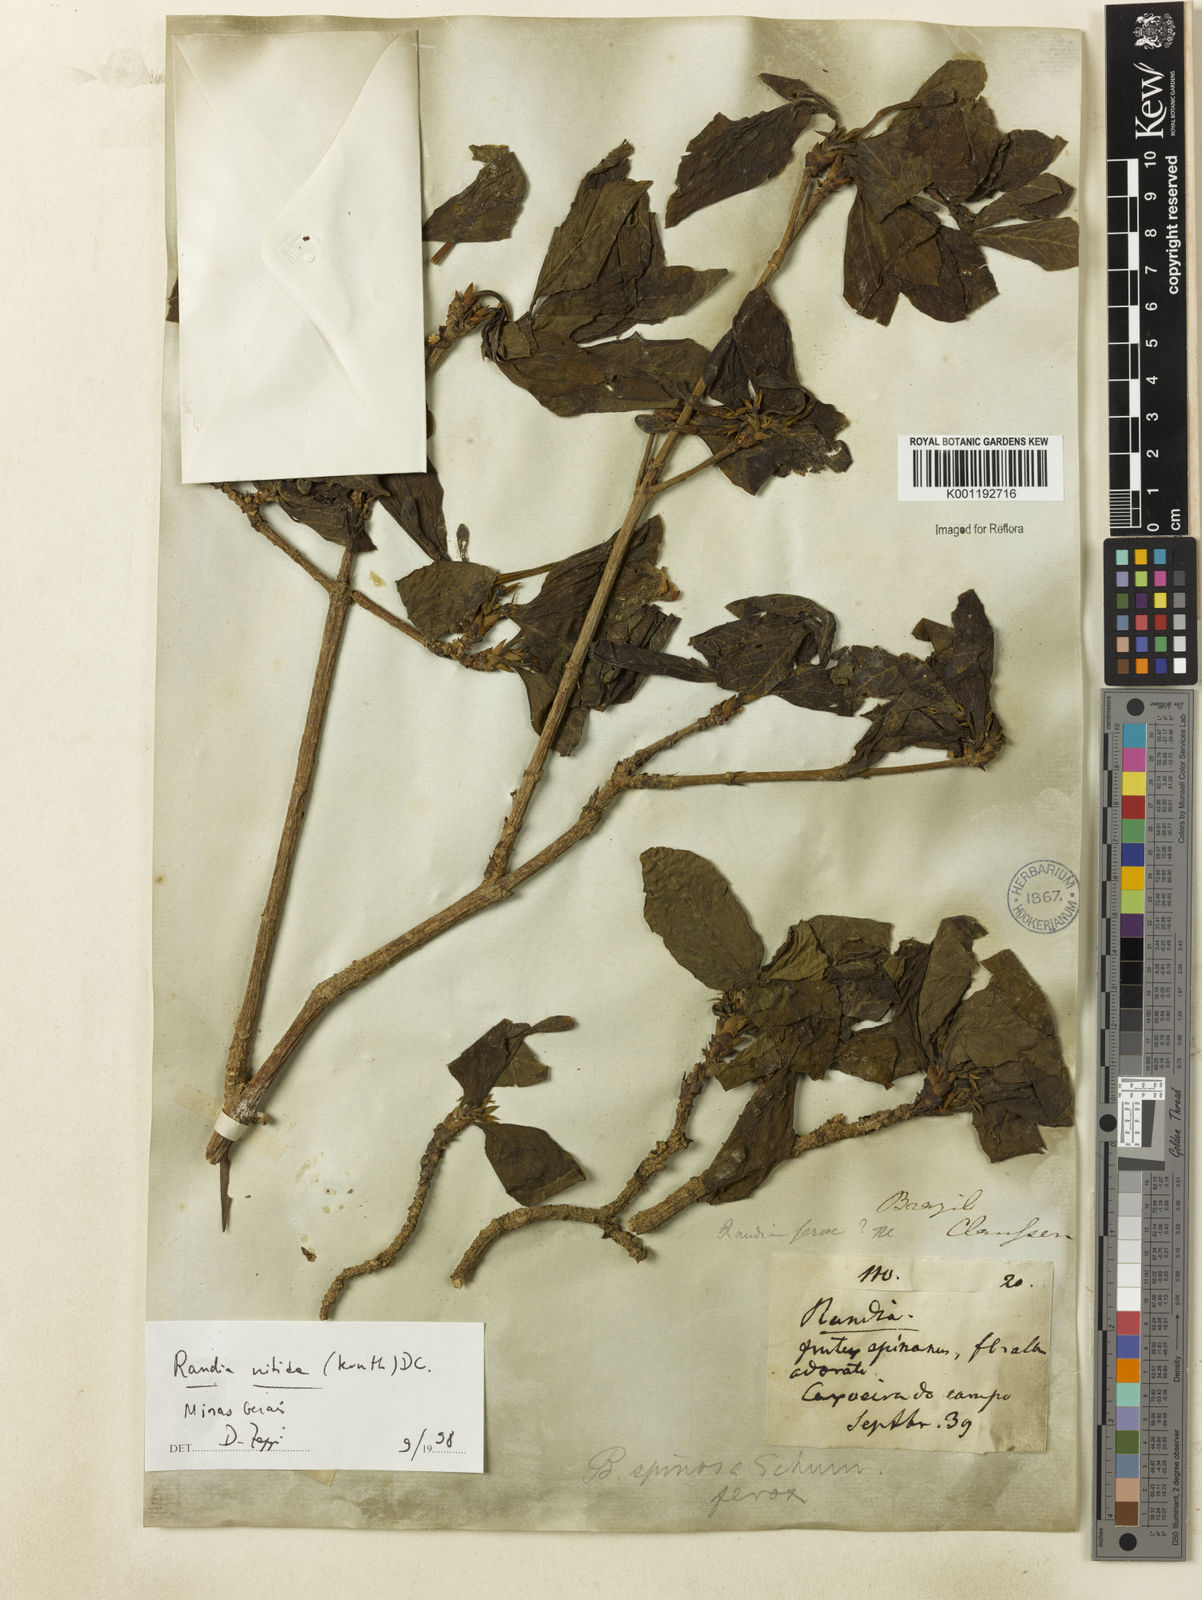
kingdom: Plantae
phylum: Tracheophyta
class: Magnoliopsida
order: Gentianales
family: Rubiaceae
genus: Randia
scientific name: Randia nitida
